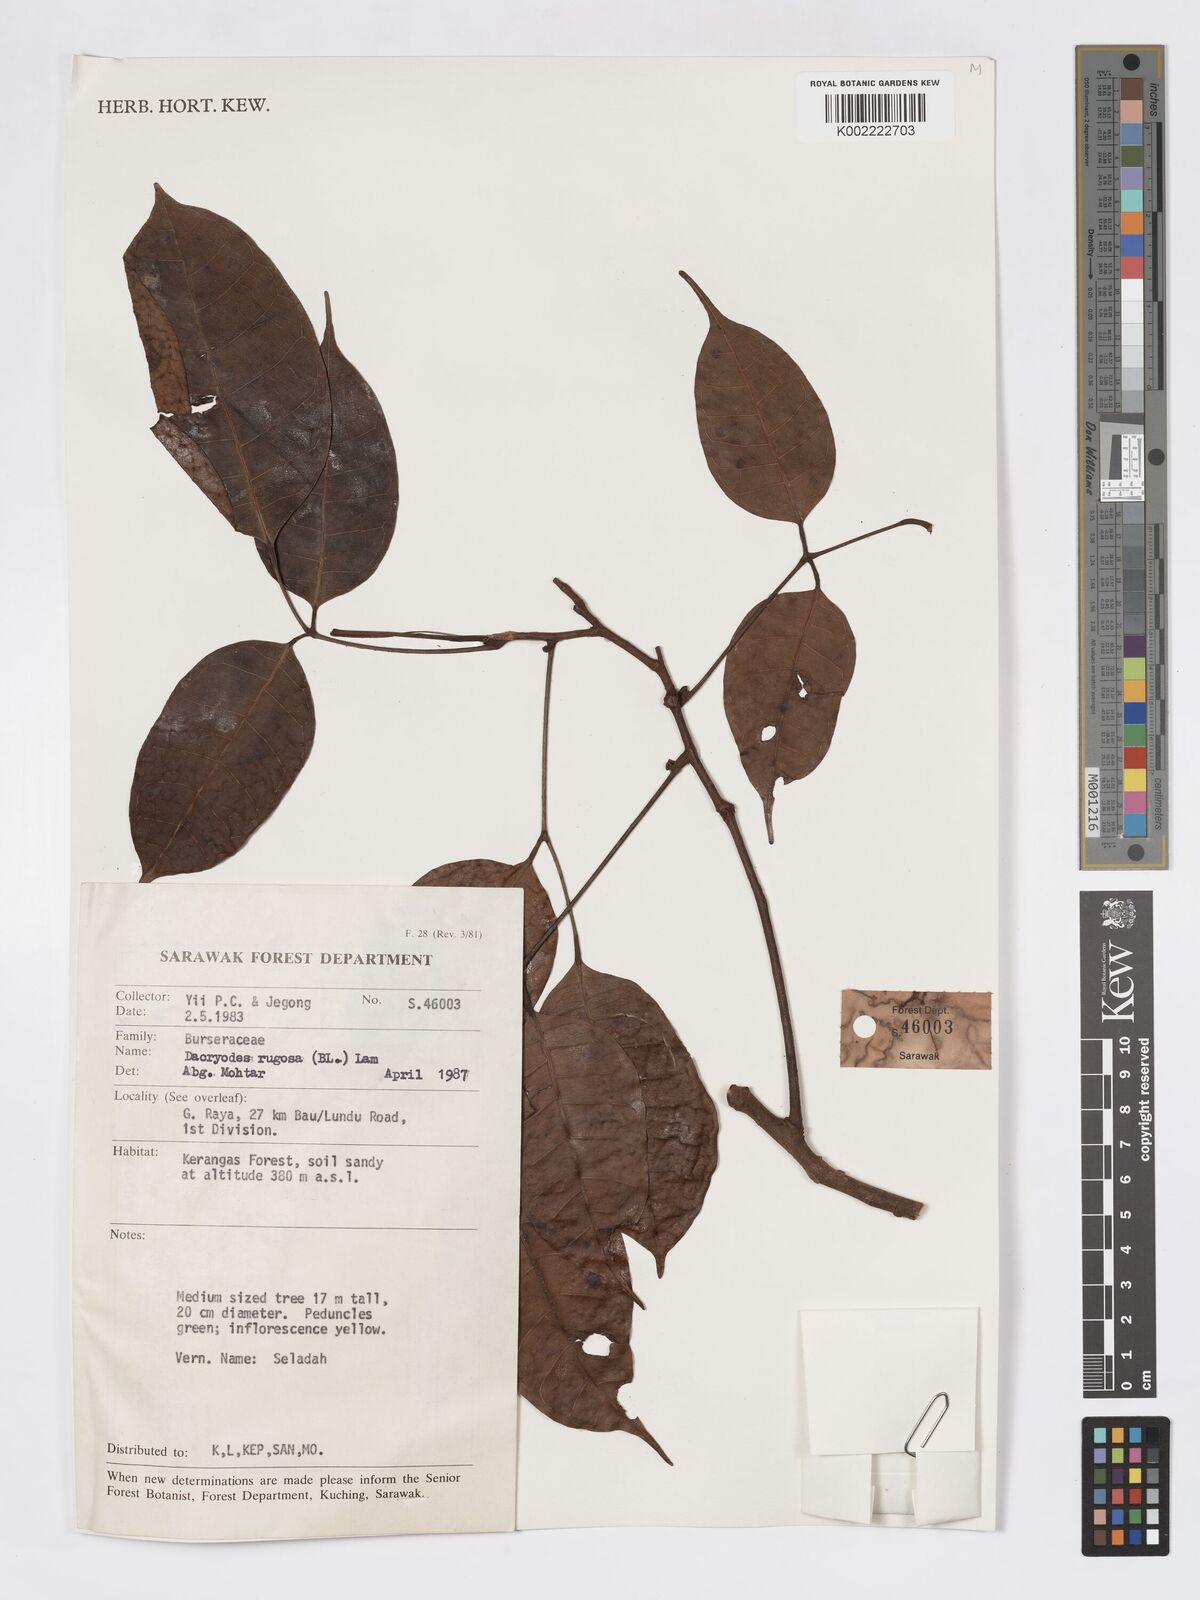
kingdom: Plantae
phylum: Tracheophyta
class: Magnoliopsida
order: Sapindales
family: Burseraceae
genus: Dacryodes
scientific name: Dacryodes rugosa
